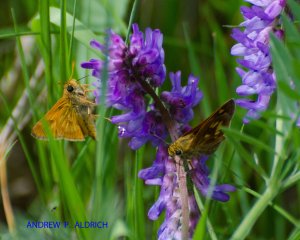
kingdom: Animalia
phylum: Arthropoda
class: Insecta
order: Lepidoptera
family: Hesperiidae
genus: Polites
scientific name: Polites
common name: Long Dash Skipper
